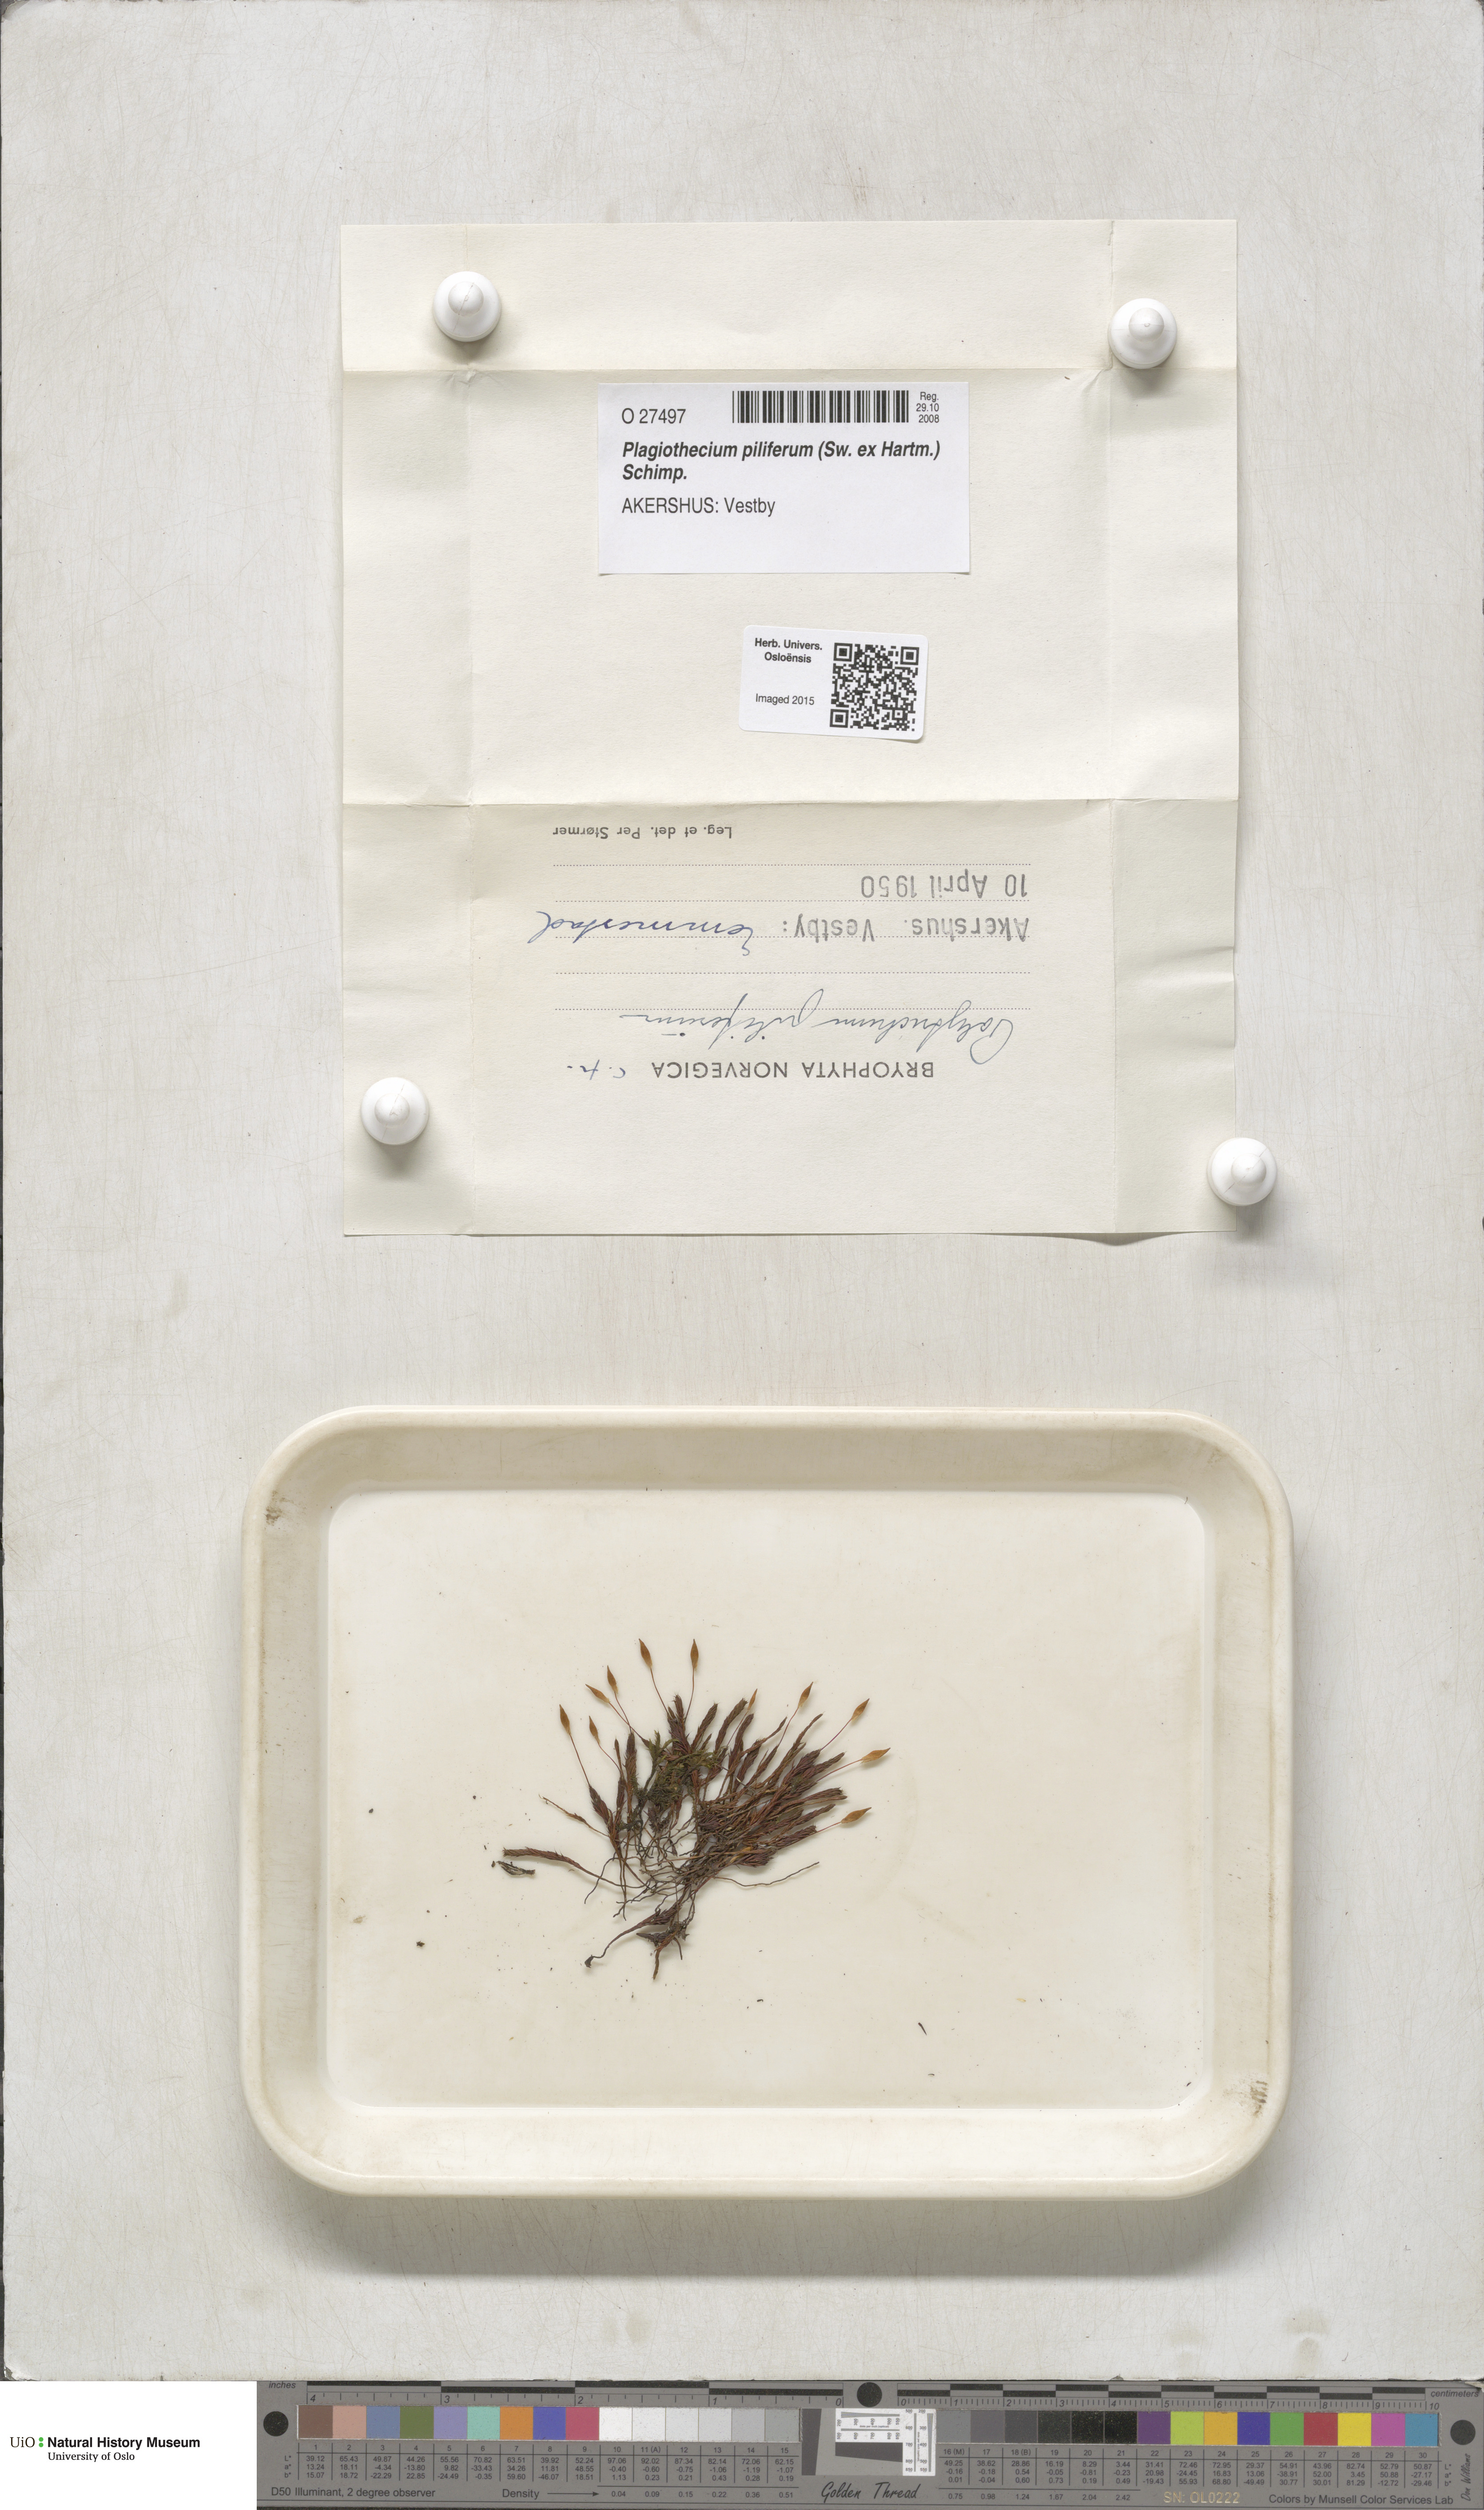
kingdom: Plantae
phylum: Bryophyta
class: Bryopsida
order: Hypnales
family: Plagiotheciaceae
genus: Rectithecium
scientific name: Rectithecium piliferum
